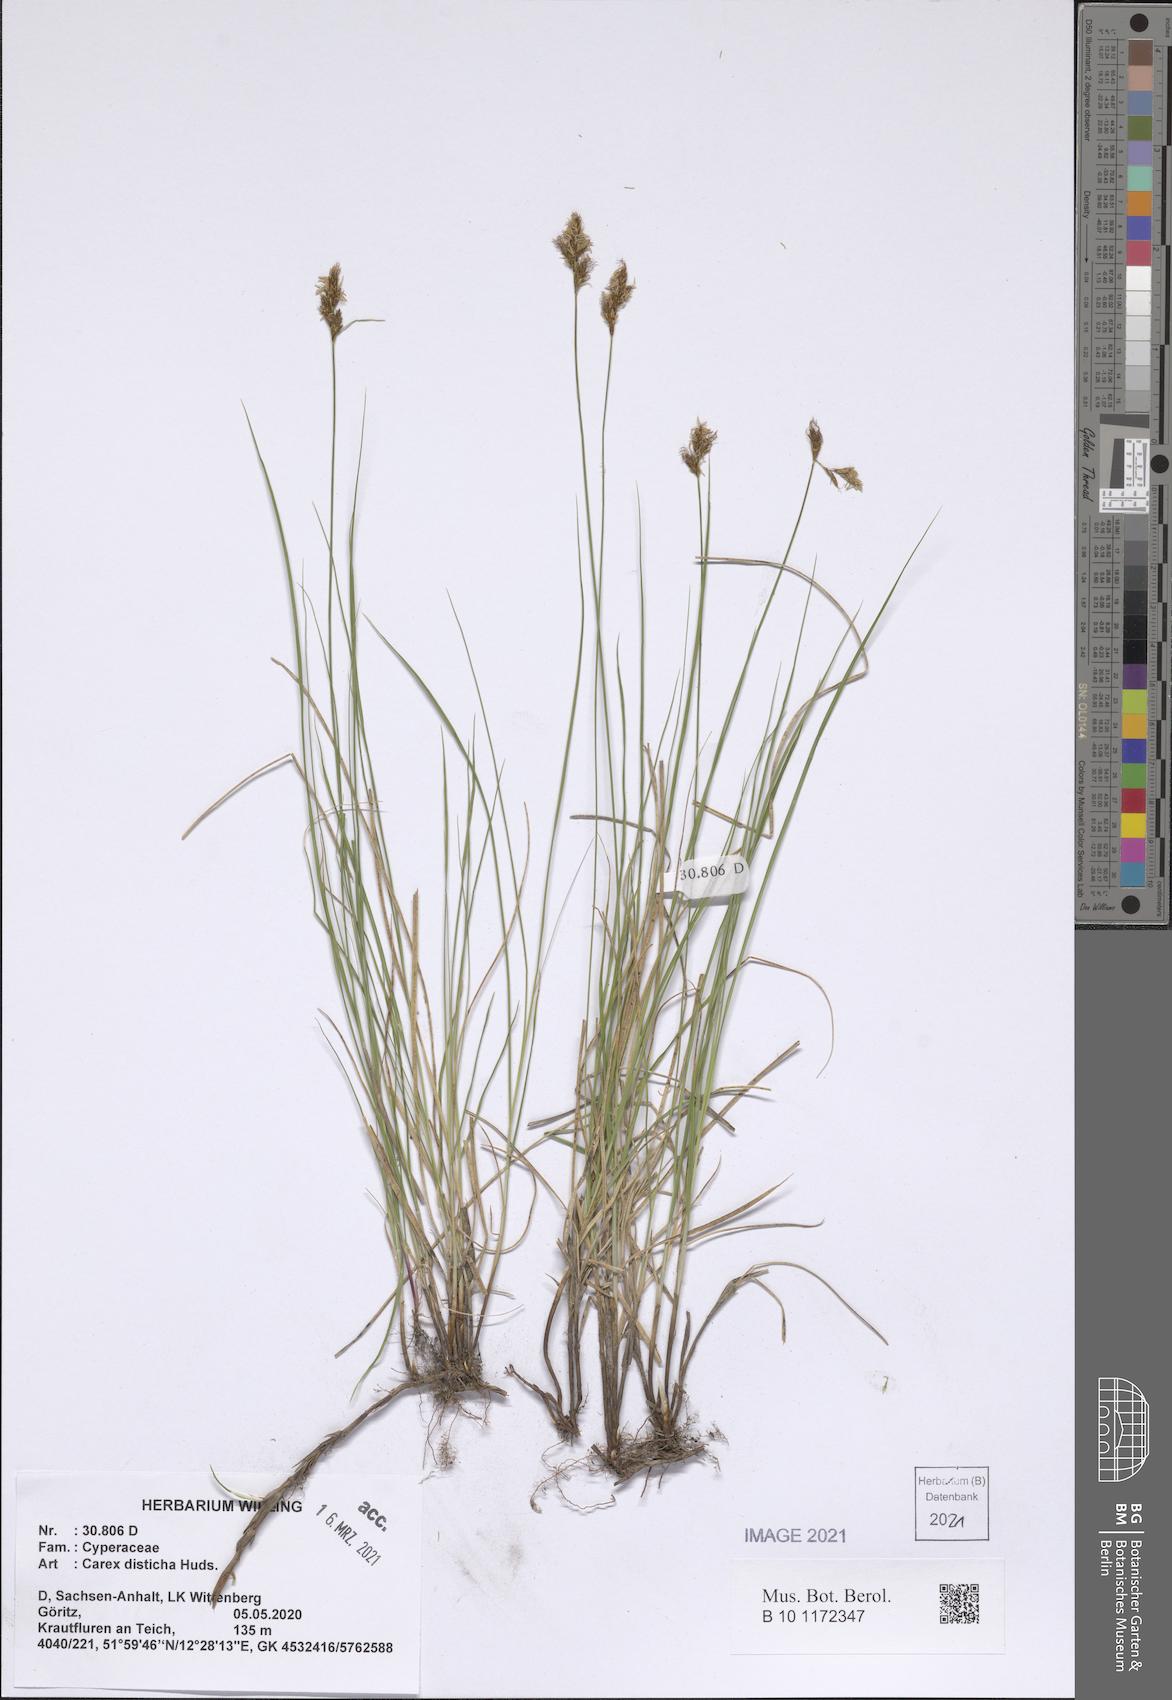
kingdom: Plantae
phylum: Tracheophyta
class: Liliopsida
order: Poales
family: Cyperaceae
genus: Carex
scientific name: Carex disticha
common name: Brown sedge
